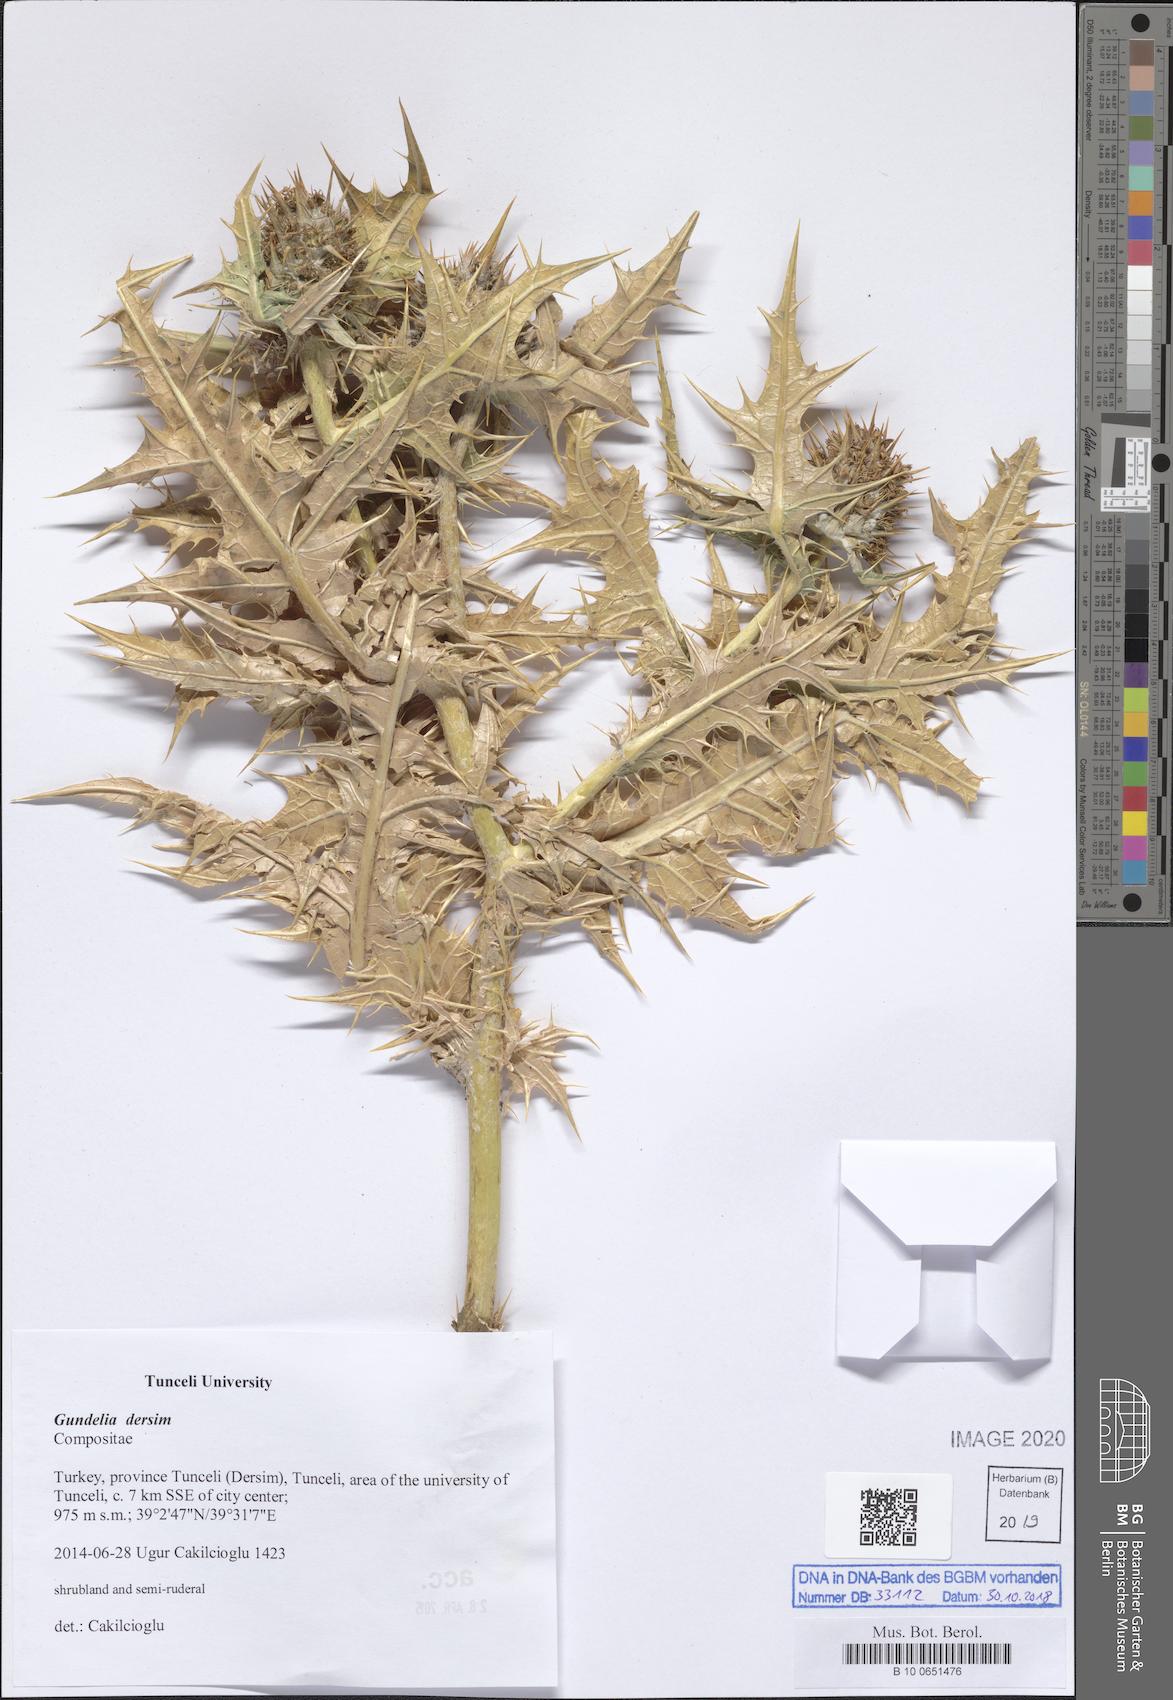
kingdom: Plantae
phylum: Tracheophyta
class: Magnoliopsida
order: Asterales
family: Asteraceae
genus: Gundelia
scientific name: Gundelia dersim
